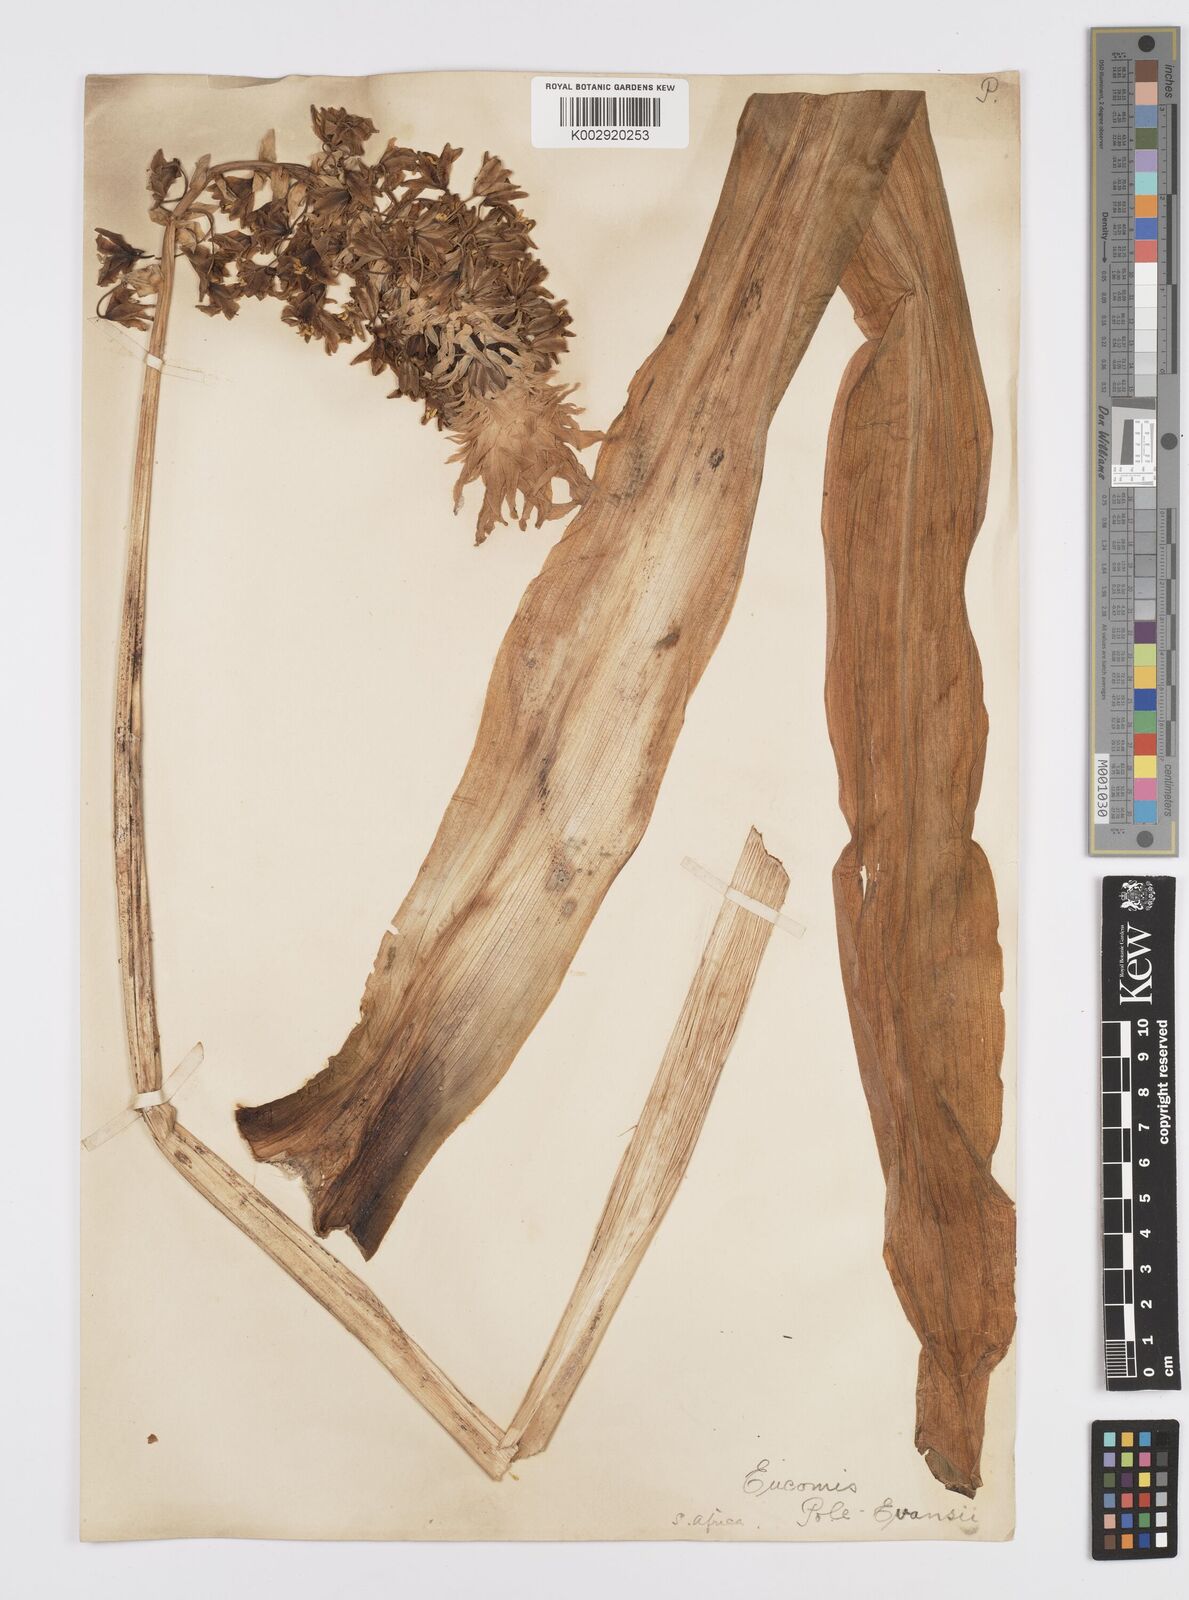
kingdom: Plantae
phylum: Tracheophyta
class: Liliopsida
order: Asparagales
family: Asparagaceae
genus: Eucomis
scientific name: Eucomis pallidiflora
